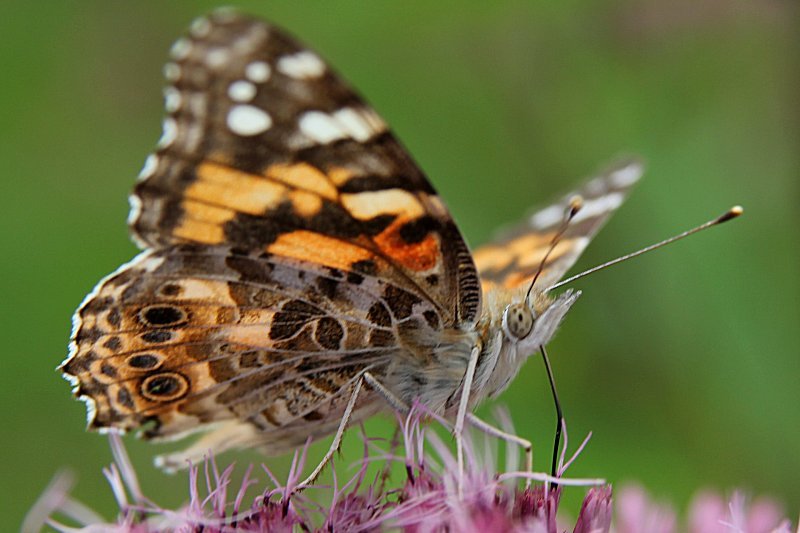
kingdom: Animalia
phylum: Arthropoda
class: Insecta
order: Lepidoptera
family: Nymphalidae
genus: Vanessa
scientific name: Vanessa cardui
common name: Painted Lady
